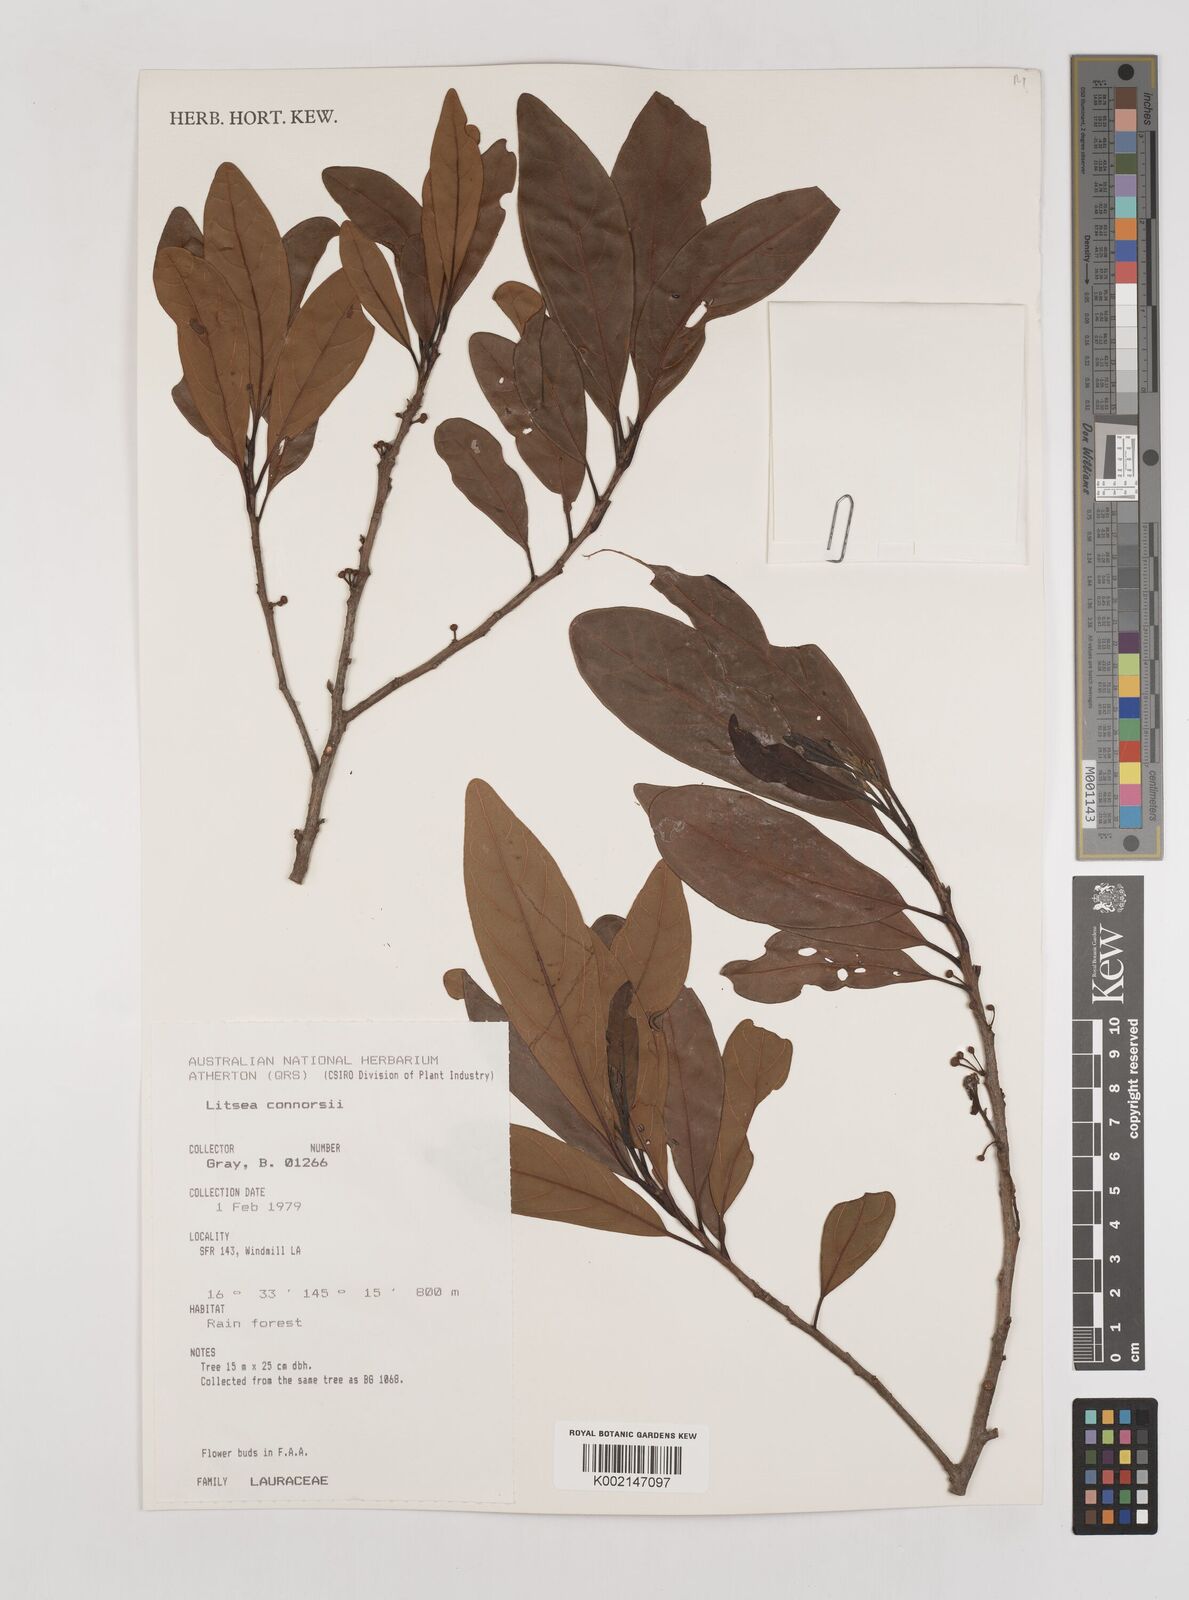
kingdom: Plantae
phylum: Tracheophyta
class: Magnoliopsida
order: Laurales
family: Lauraceae
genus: Litsea
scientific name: Litsea connorsii
